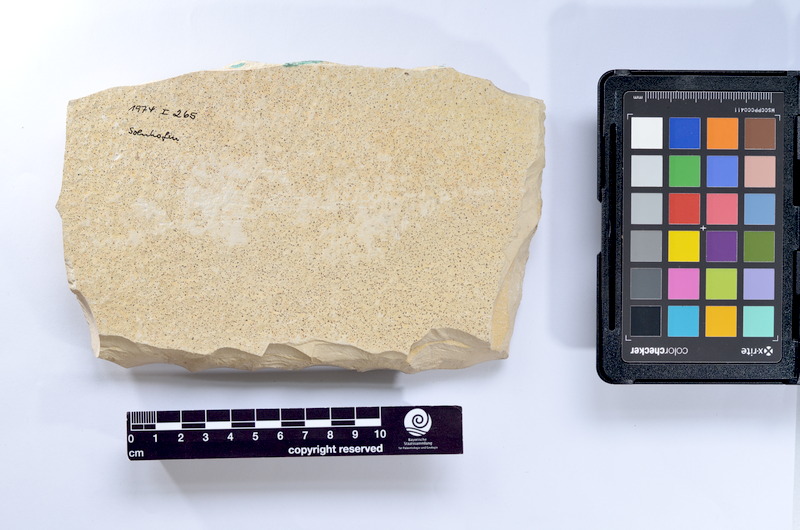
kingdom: Animalia
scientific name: Animalia
